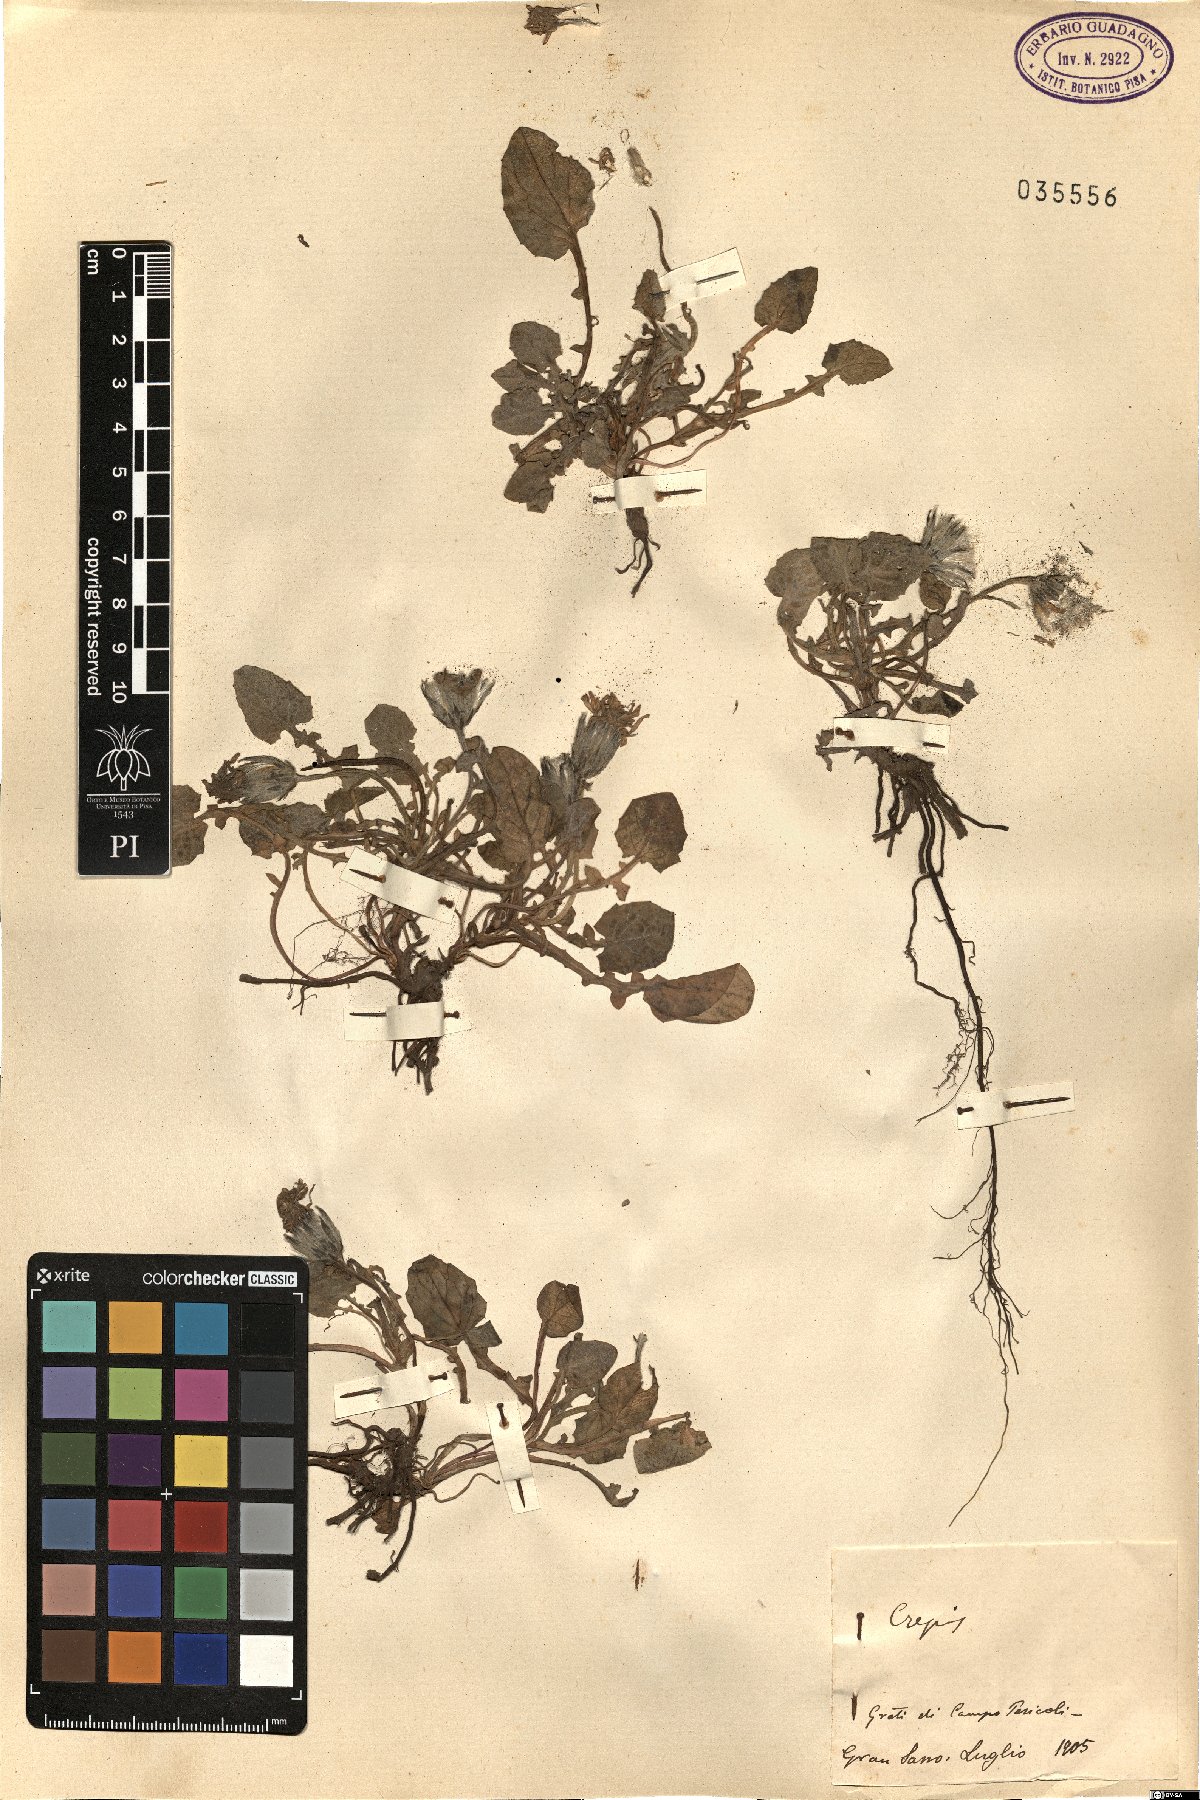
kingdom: Plantae
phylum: Tracheophyta
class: Magnoliopsida
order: Asterales
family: Asteraceae
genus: Crepis
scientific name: Crepis
